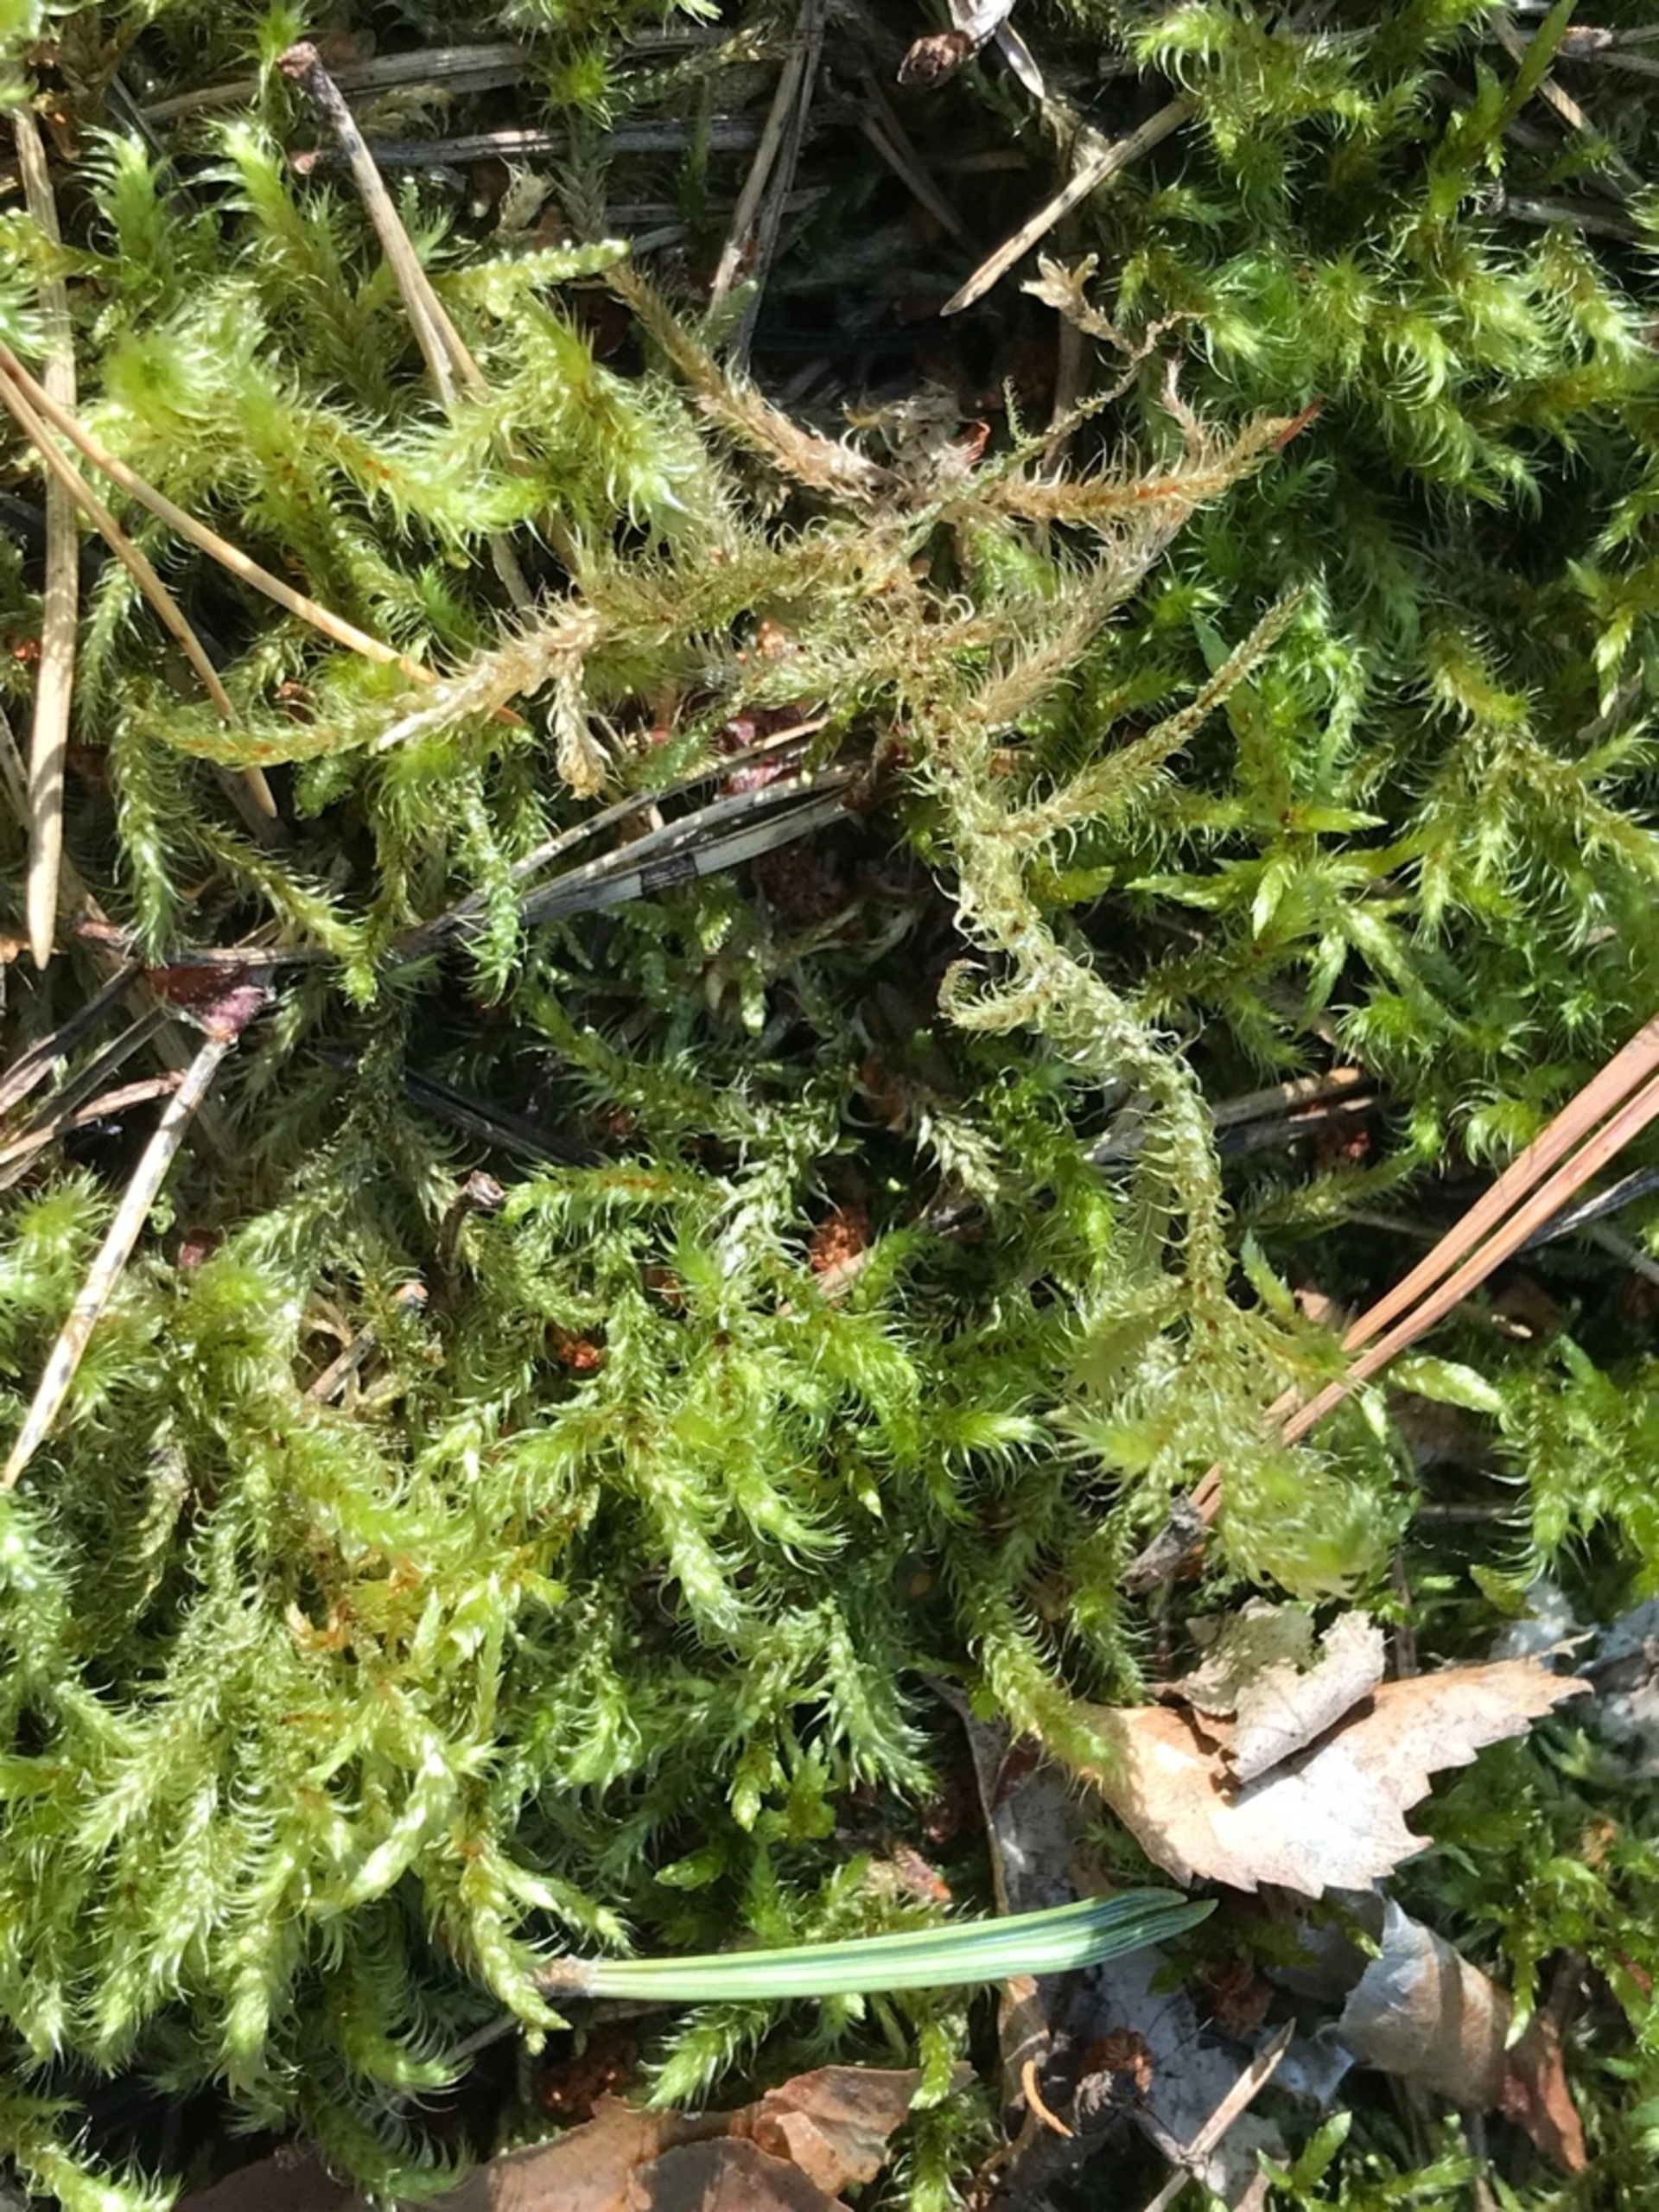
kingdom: Plantae
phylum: Bryophyta
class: Bryopsida
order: Hypnales
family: Hylocomiaceae
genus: Rhytidiadelphus
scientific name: Rhytidiadelphus loreus
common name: Ulvefod-kransemos
